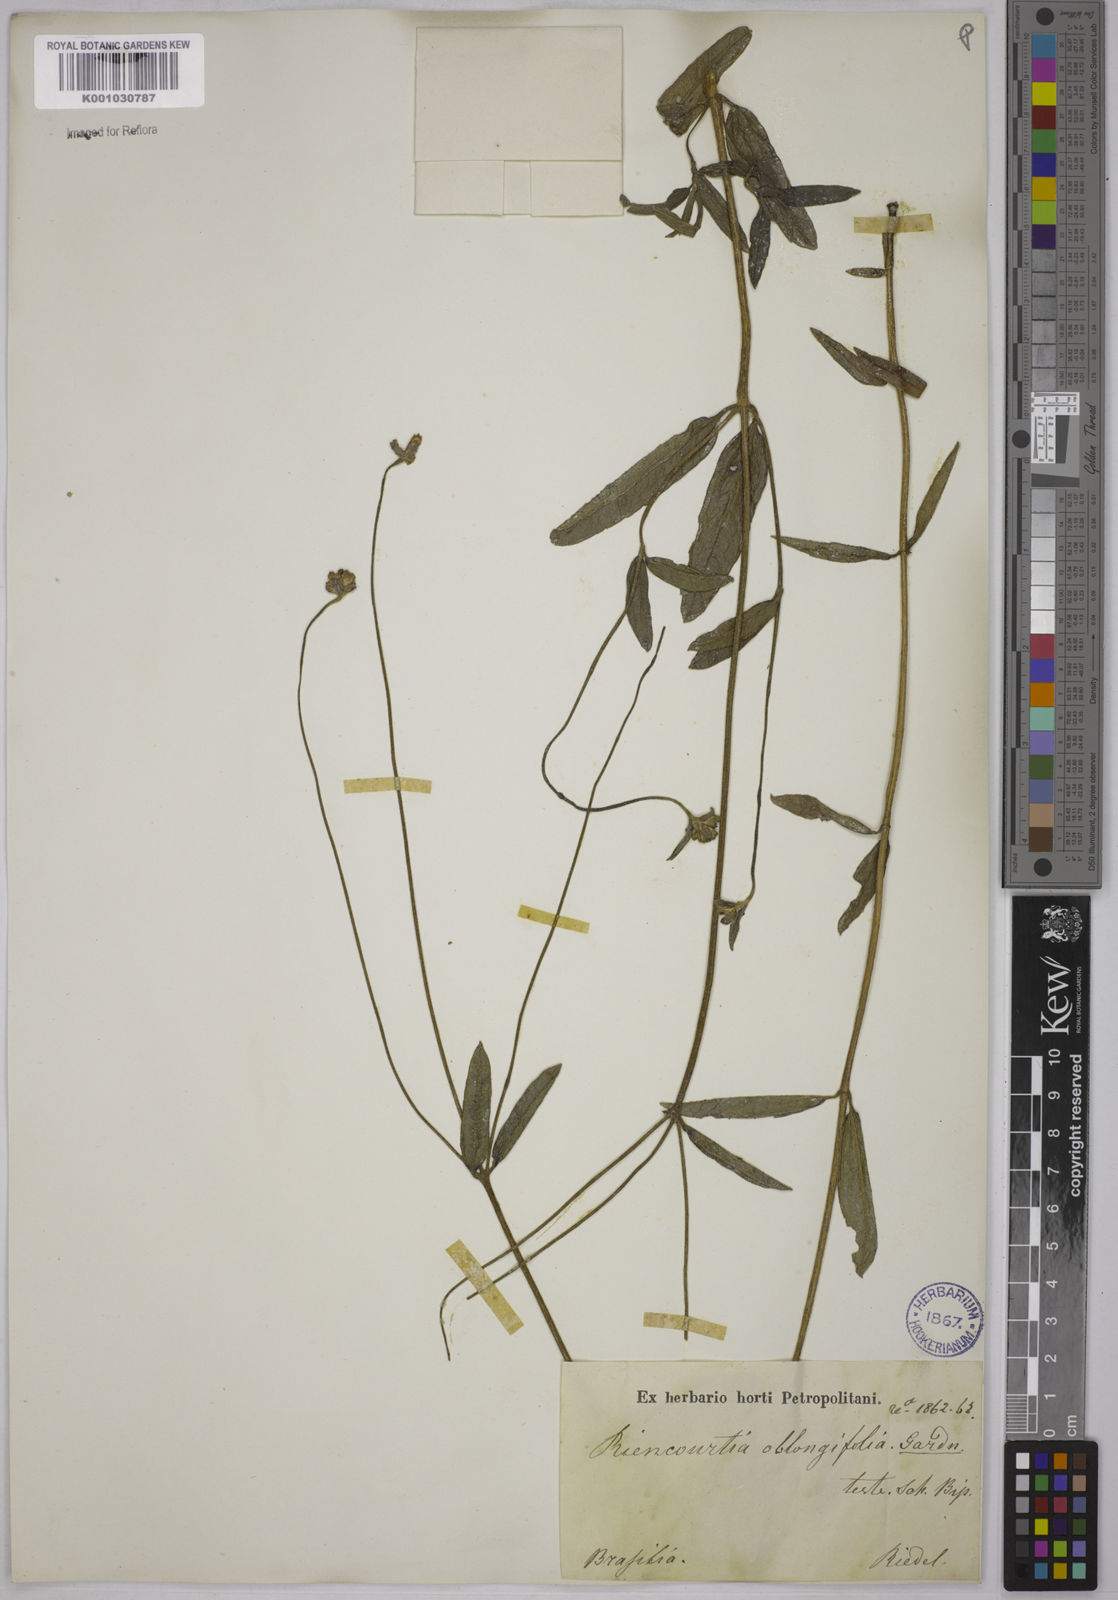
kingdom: Plantae
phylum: Tracheophyta
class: Magnoliopsida
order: Asterales
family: Asteraceae
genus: Riencourtia
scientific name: Riencourtia oblongifolia
